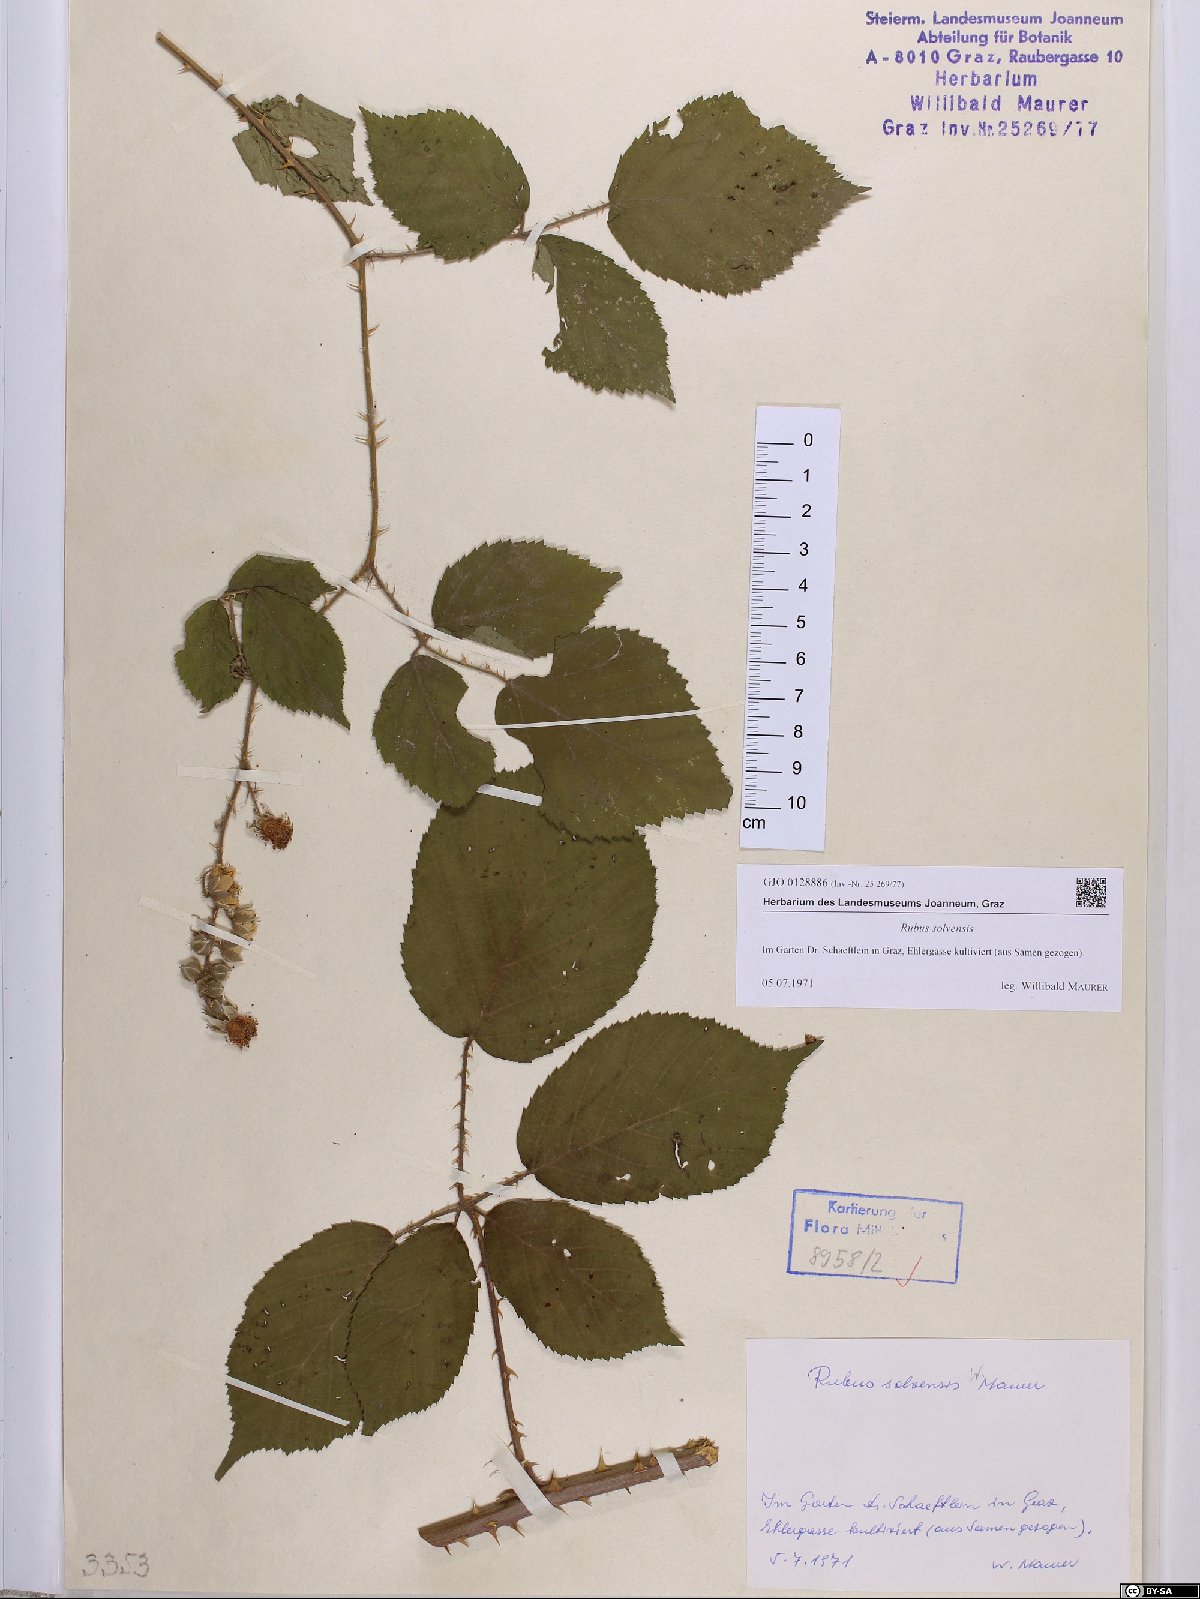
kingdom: Plantae
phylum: Tracheophyta
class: Magnoliopsida
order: Rosales
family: Rosaceae
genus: Rubus
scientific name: Rubus solvensis
